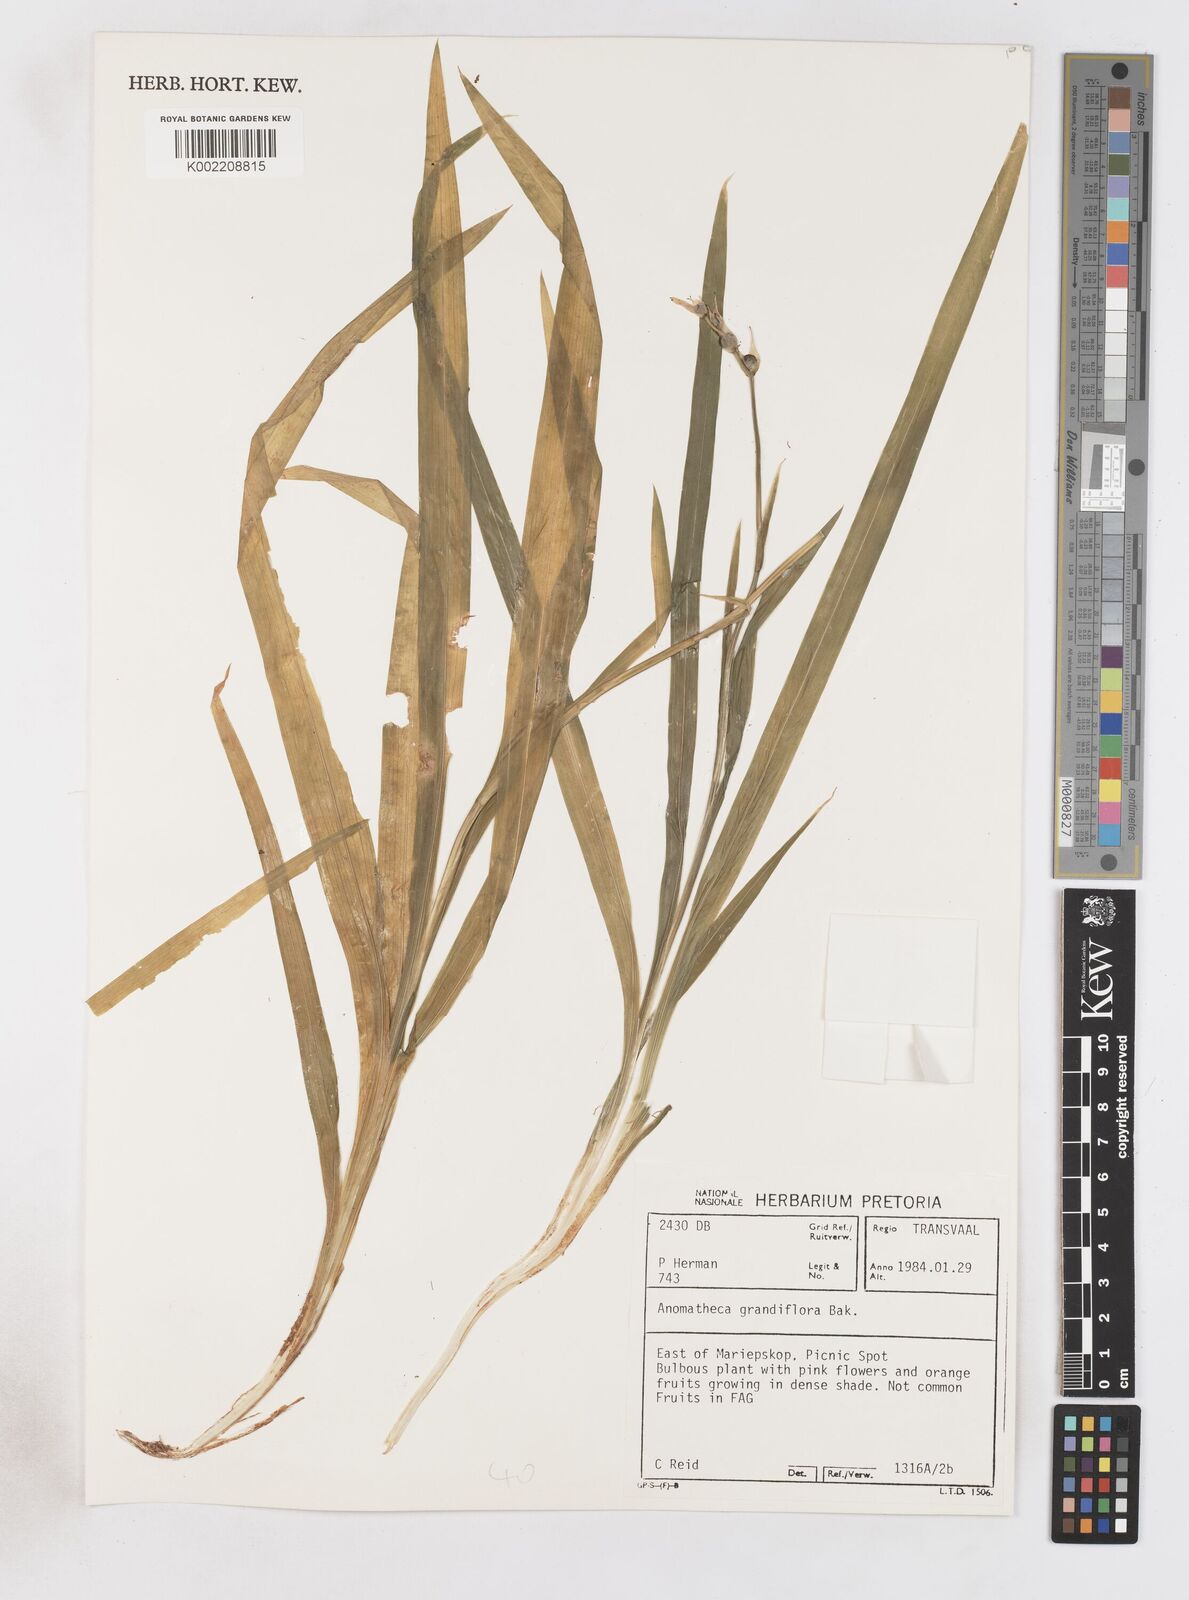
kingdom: Plantae
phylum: Tracheophyta
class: Liliopsida
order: Asparagales
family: Iridaceae
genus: Freesia
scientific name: Freesia grandiflora
